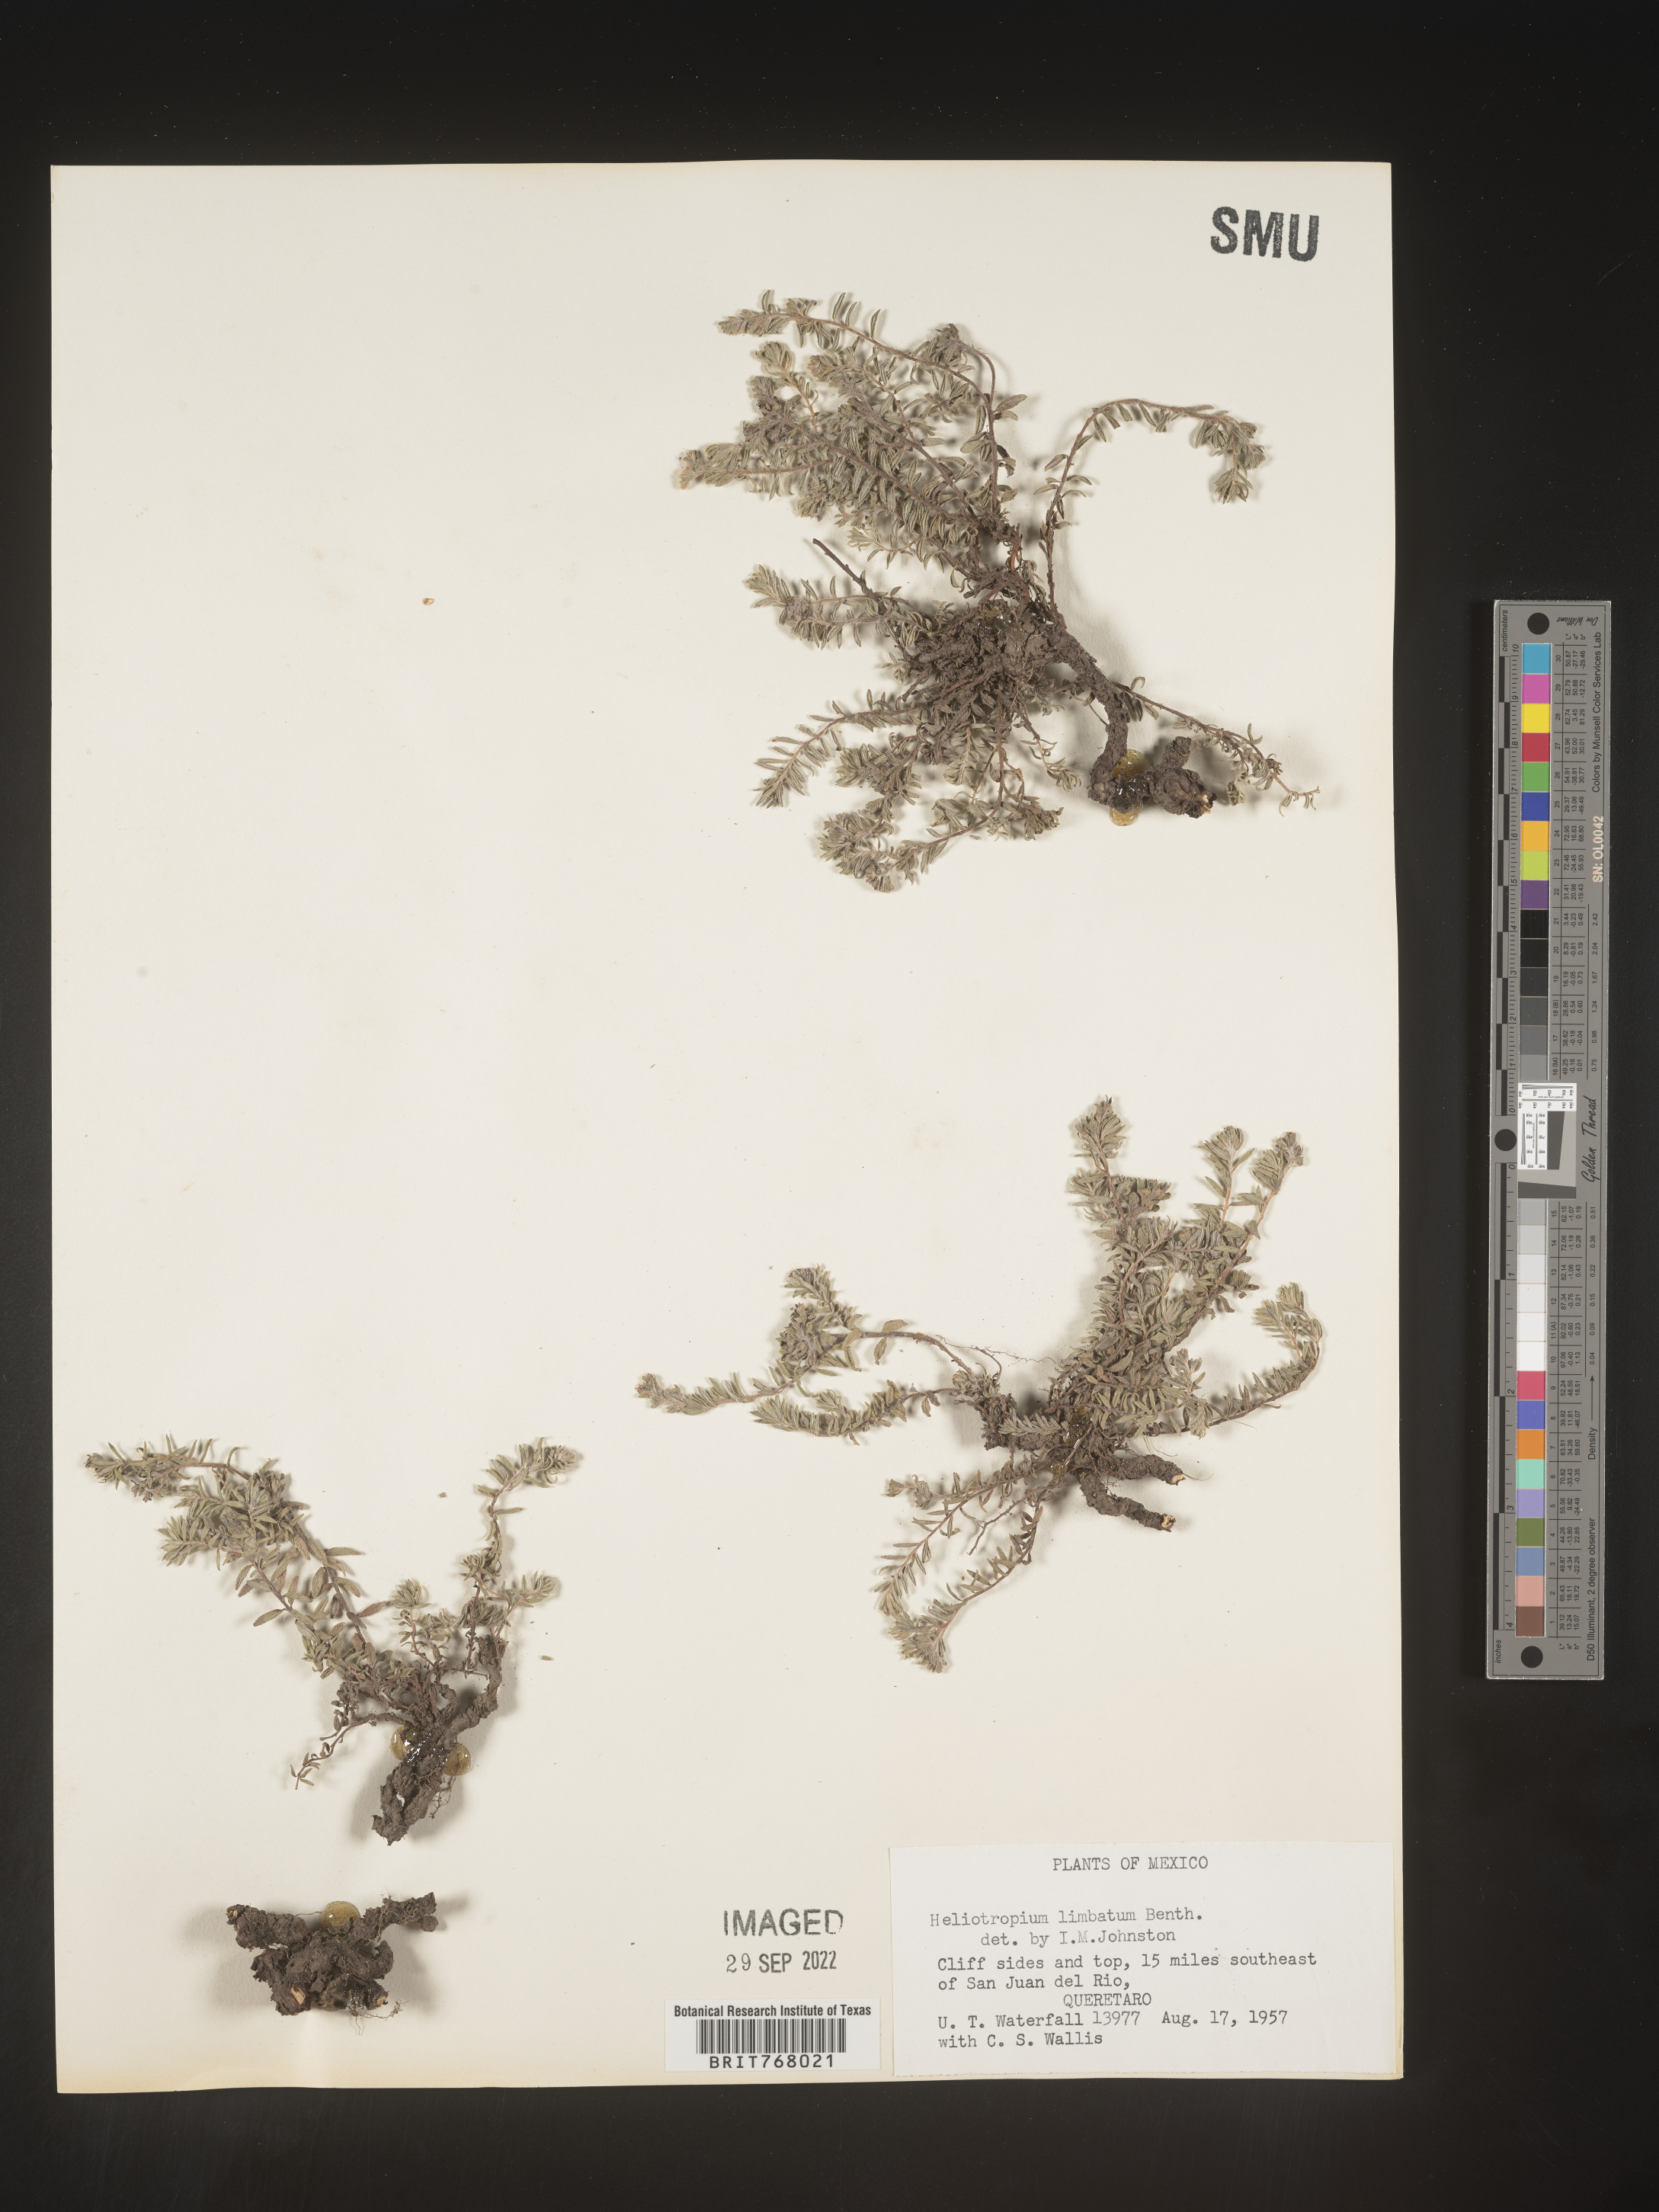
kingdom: Plantae
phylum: Tracheophyta
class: Magnoliopsida
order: Boraginales
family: Heliotropiaceae
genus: Heliotropium
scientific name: Heliotropium
